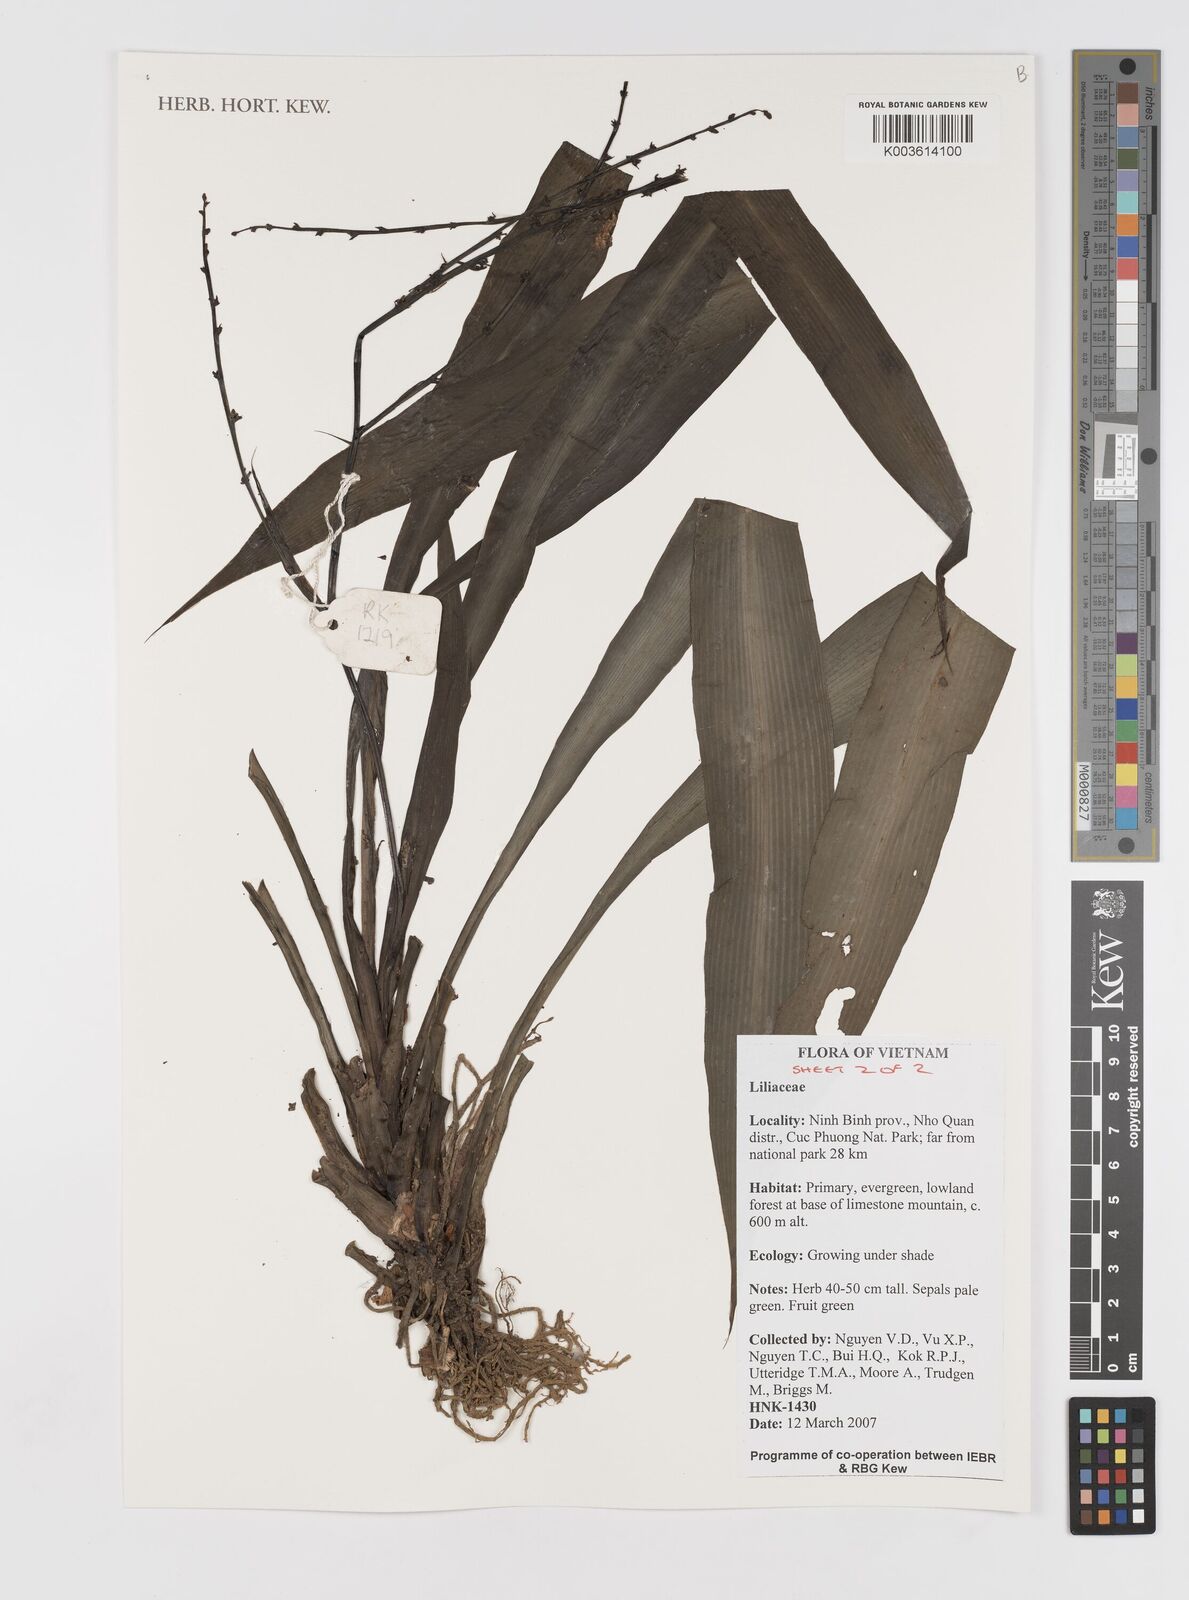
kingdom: Plantae
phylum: Tracheophyta
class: Liliopsida
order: Asparagales
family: Hypoxidaceae
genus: Curculigo
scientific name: Curculigo
